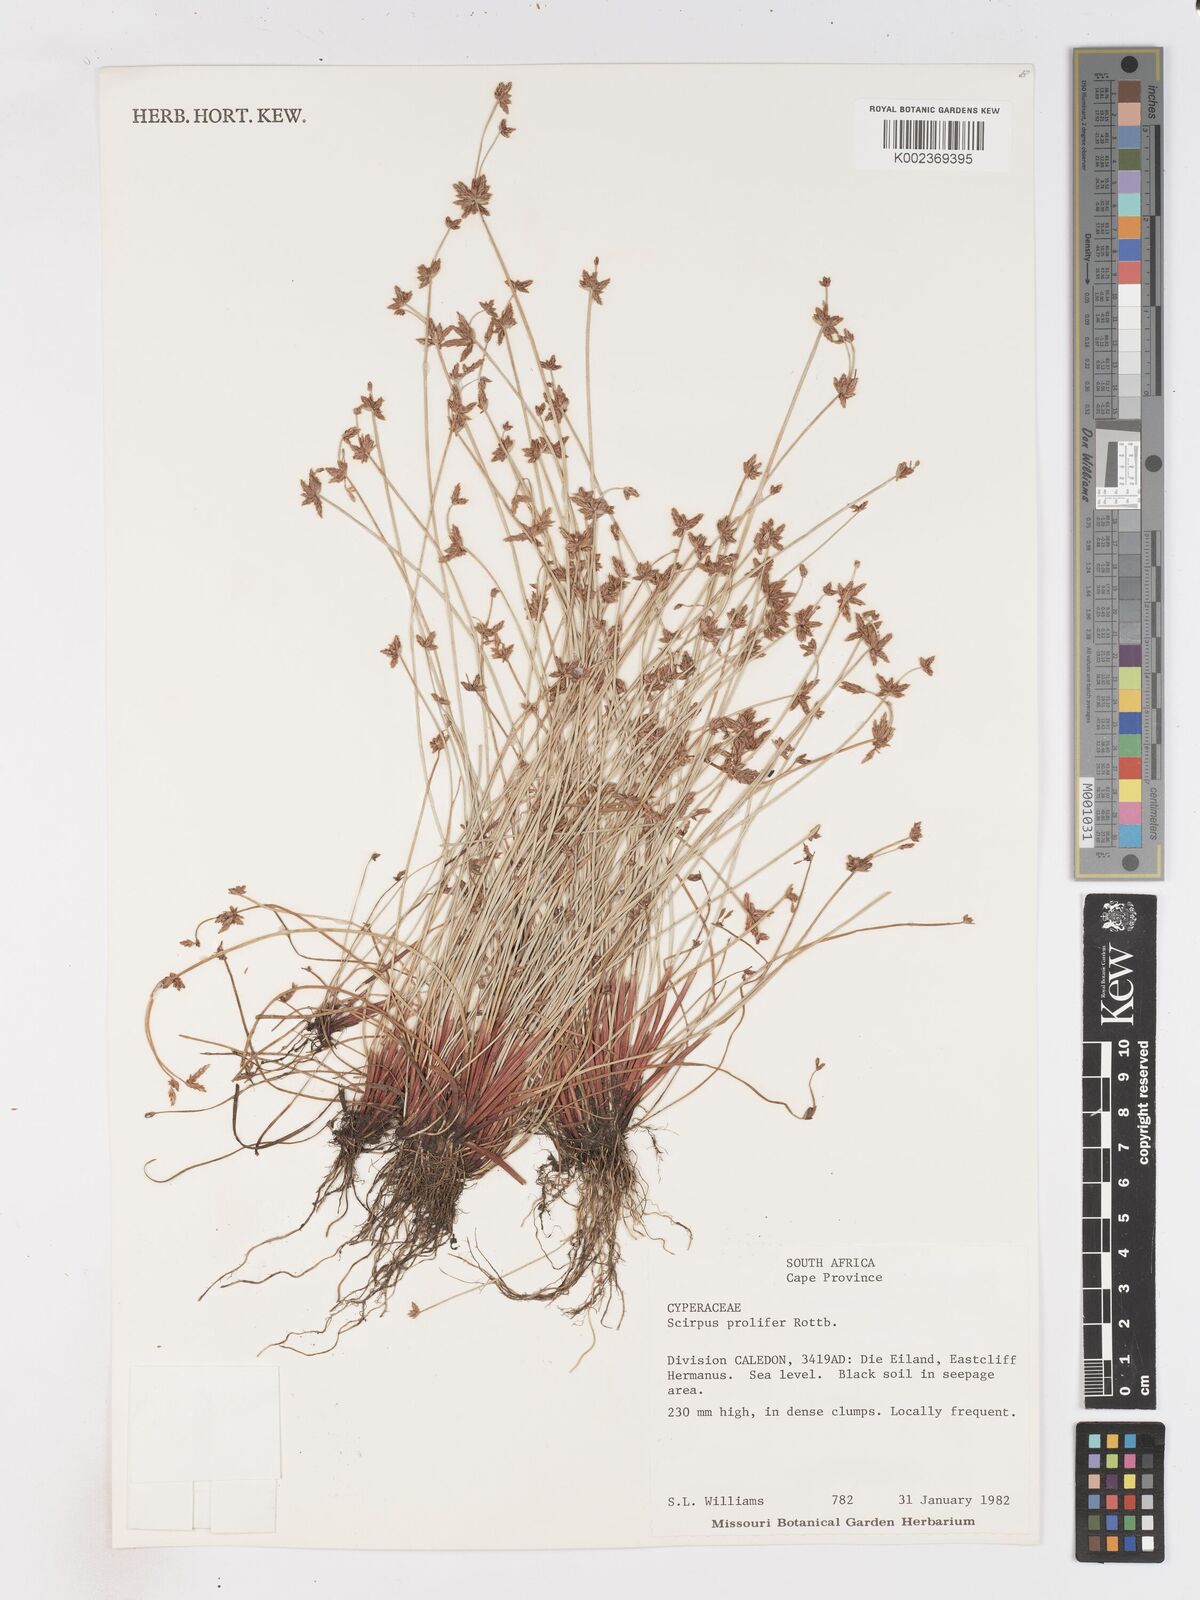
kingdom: Plantae
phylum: Tracheophyta
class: Liliopsida
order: Poales
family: Cyperaceae
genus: Isolepis
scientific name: Isolepis prolifera
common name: Proliferating bulrush
